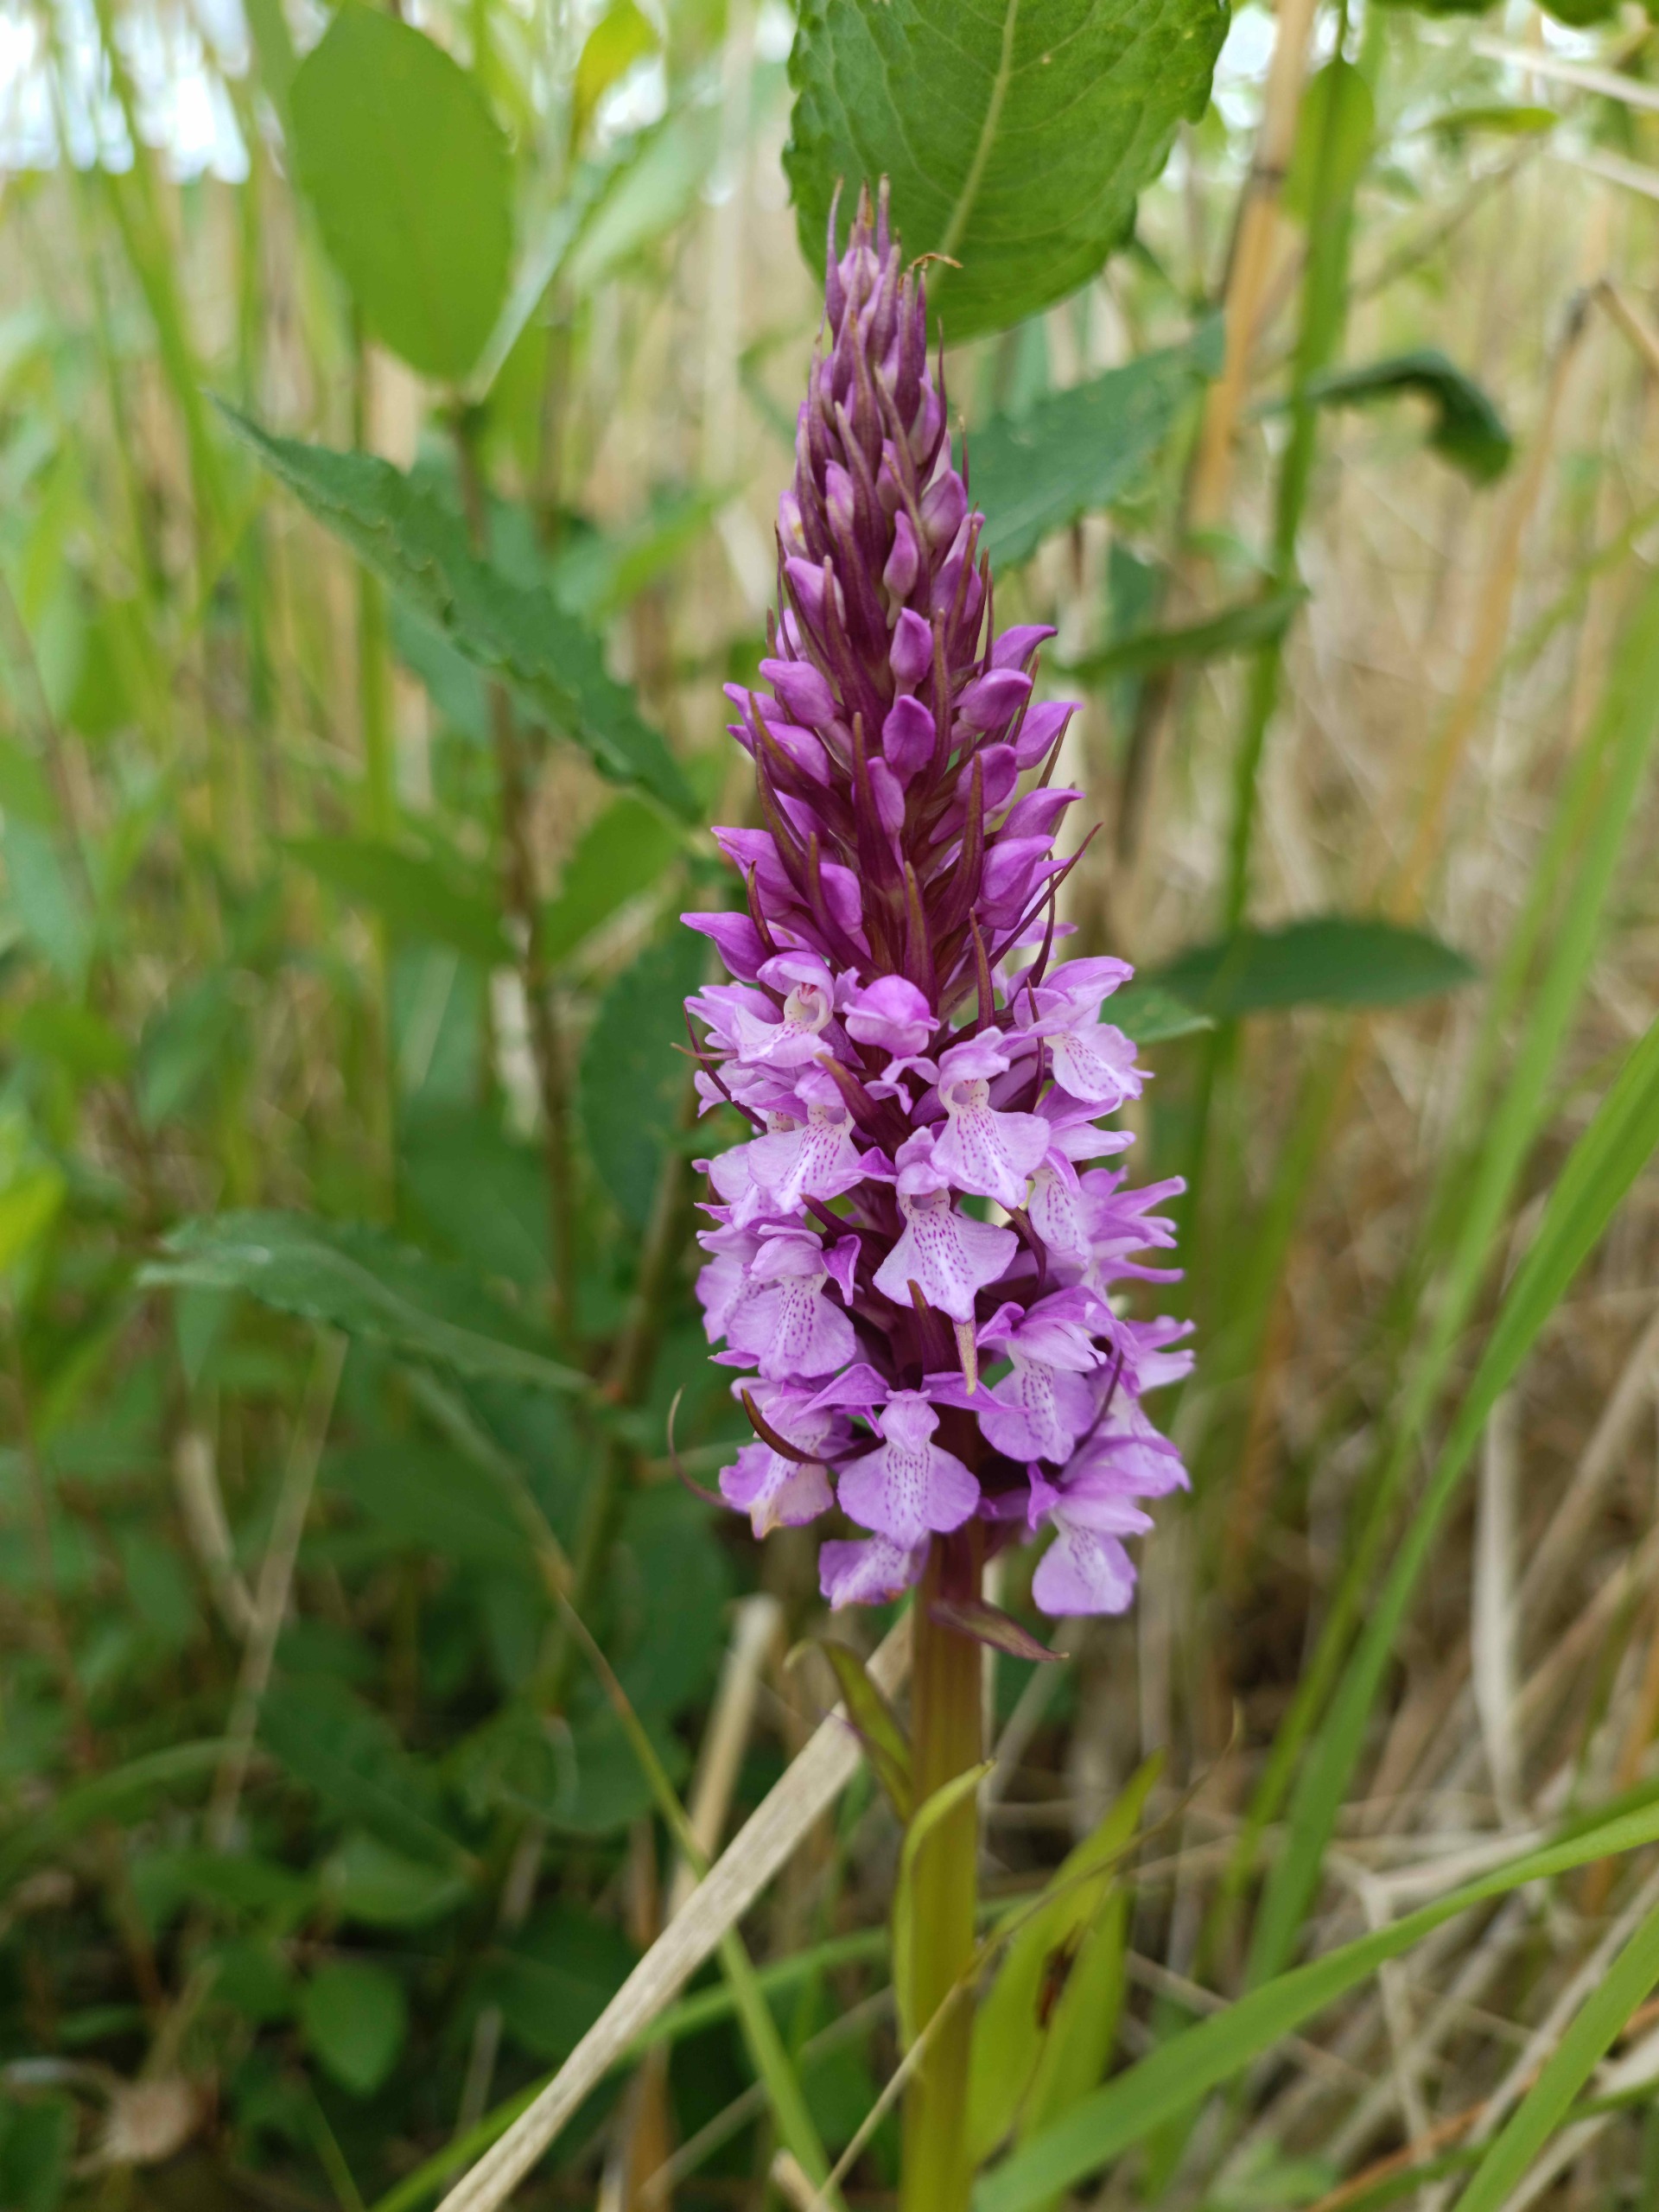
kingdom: Plantae
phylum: Tracheophyta
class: Liliopsida
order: Asparagales
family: Orchidaceae
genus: Dactylorhiza
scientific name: Dactylorhiza majalis
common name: Priklæbet gøgeurt
